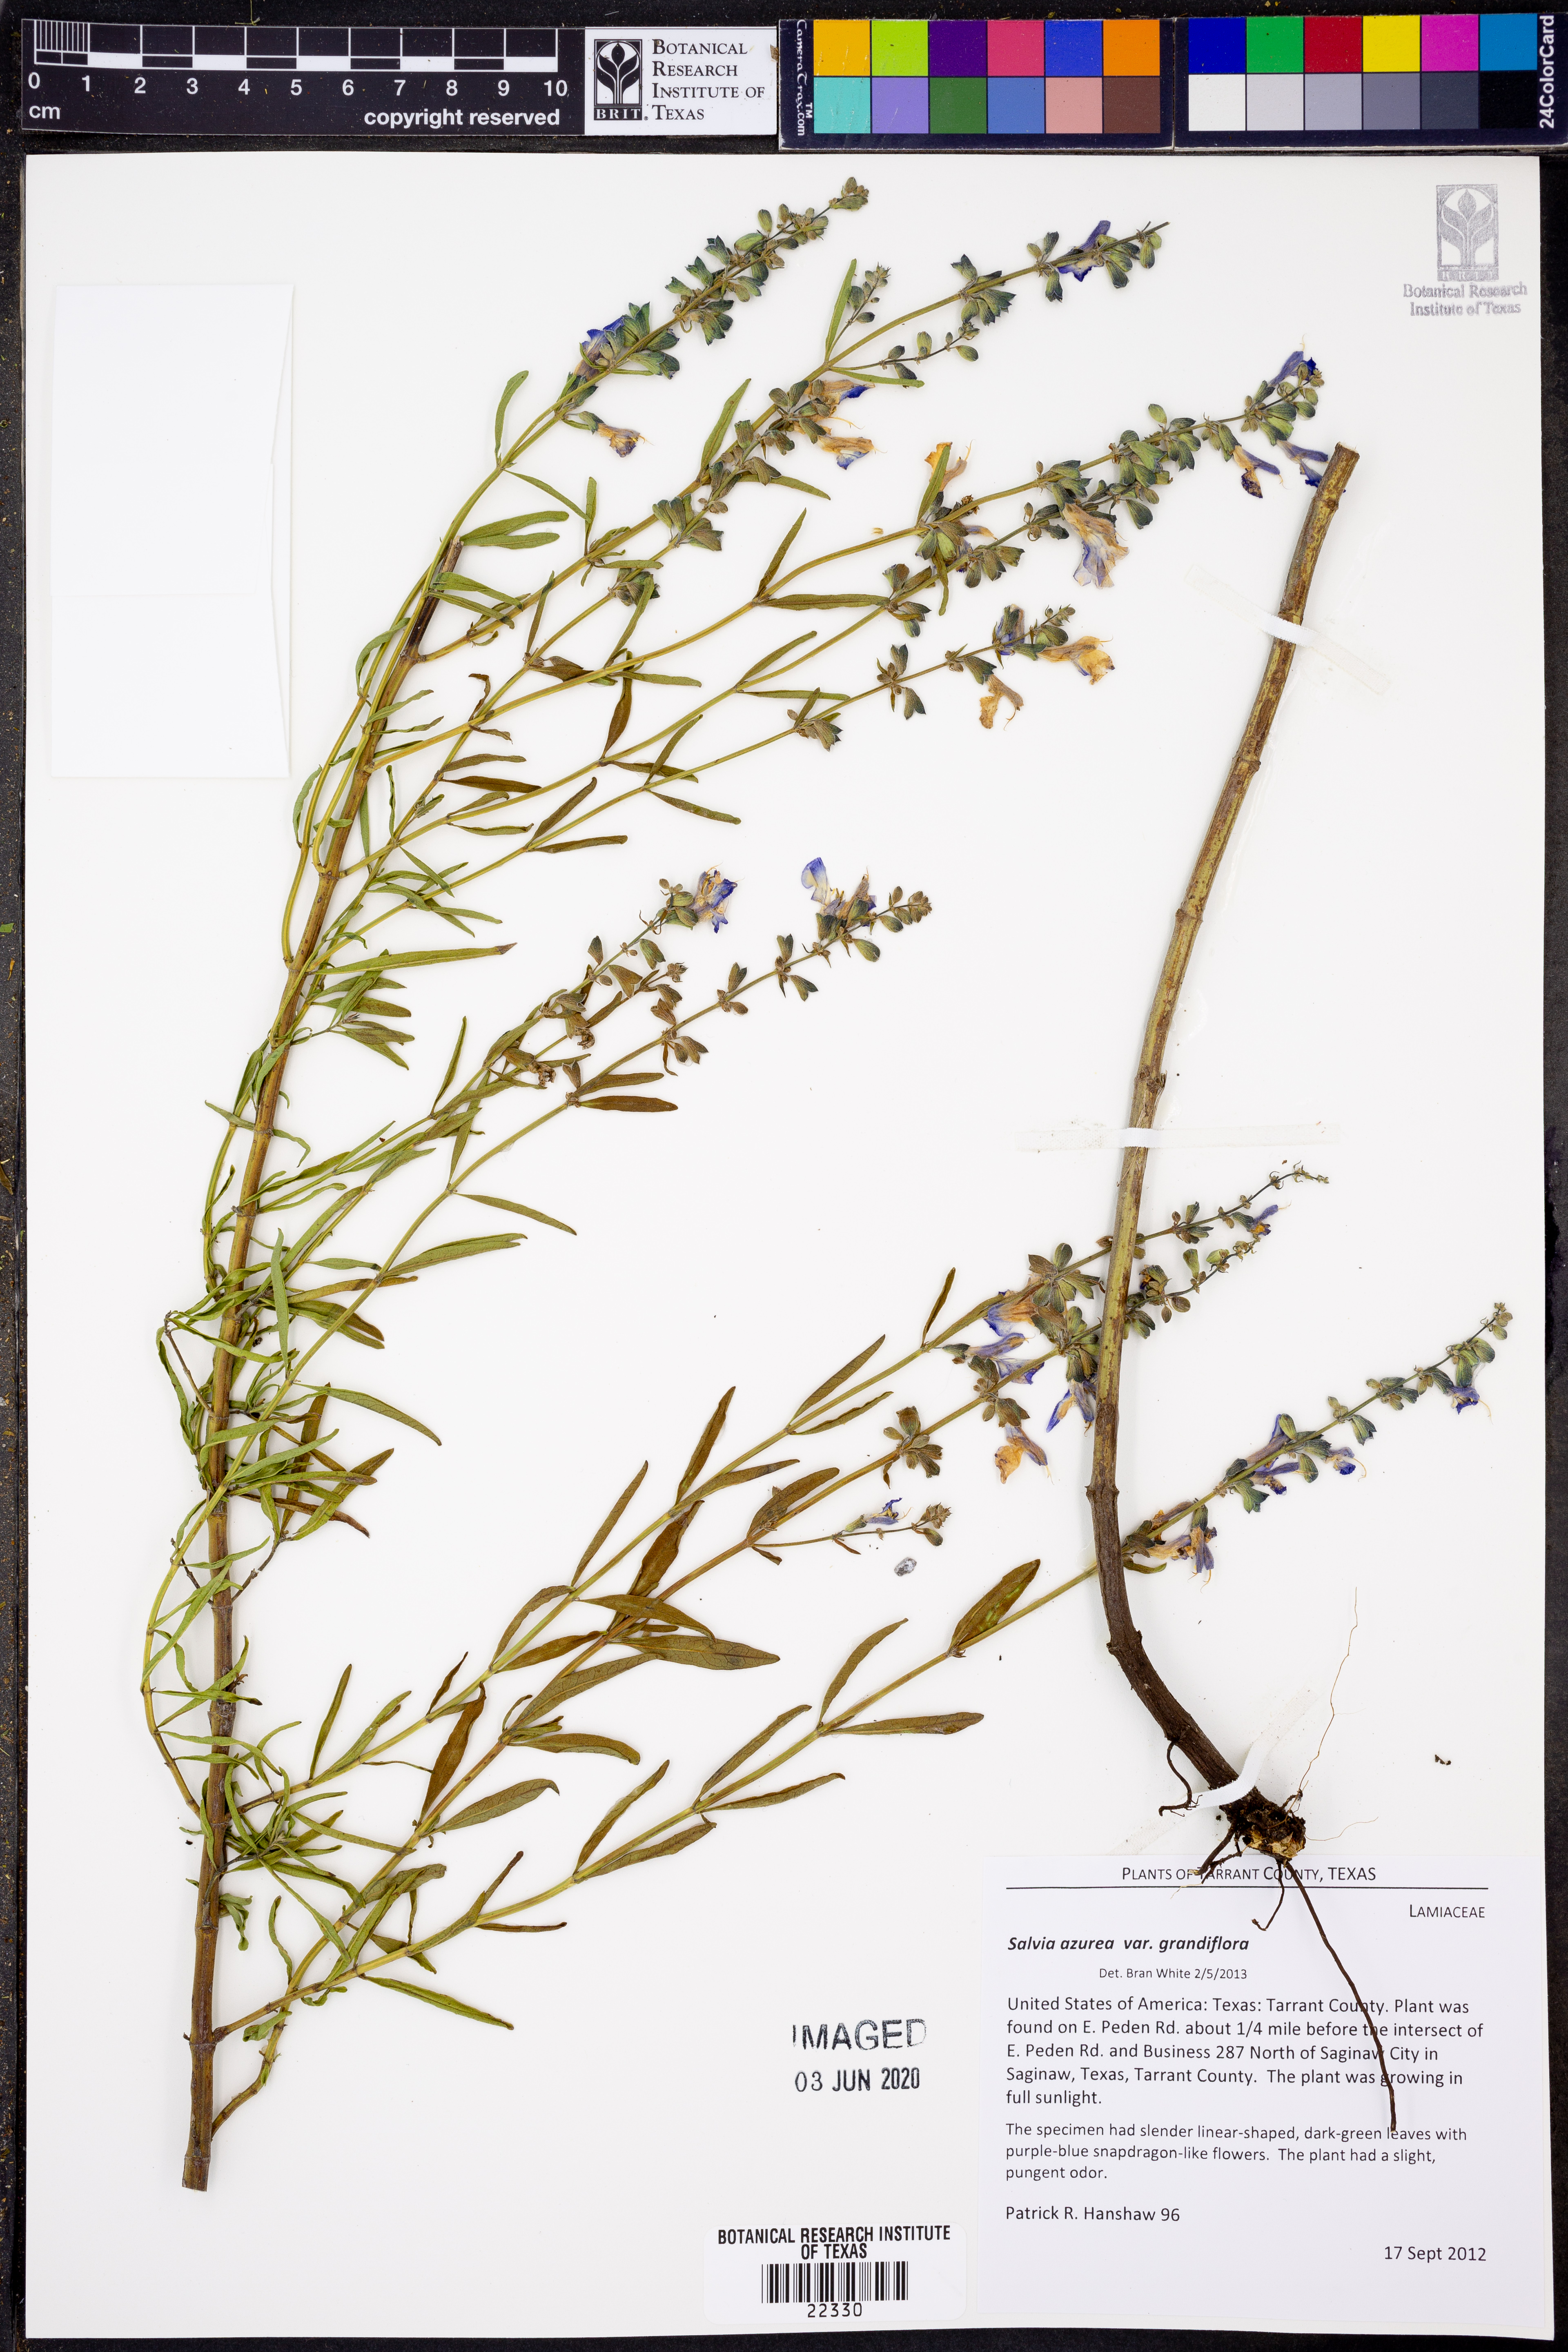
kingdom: Plantae
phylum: Tracheophyta
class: Magnoliopsida
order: Lamiales
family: Lamiaceae
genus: Salvia
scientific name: Salvia azurea
